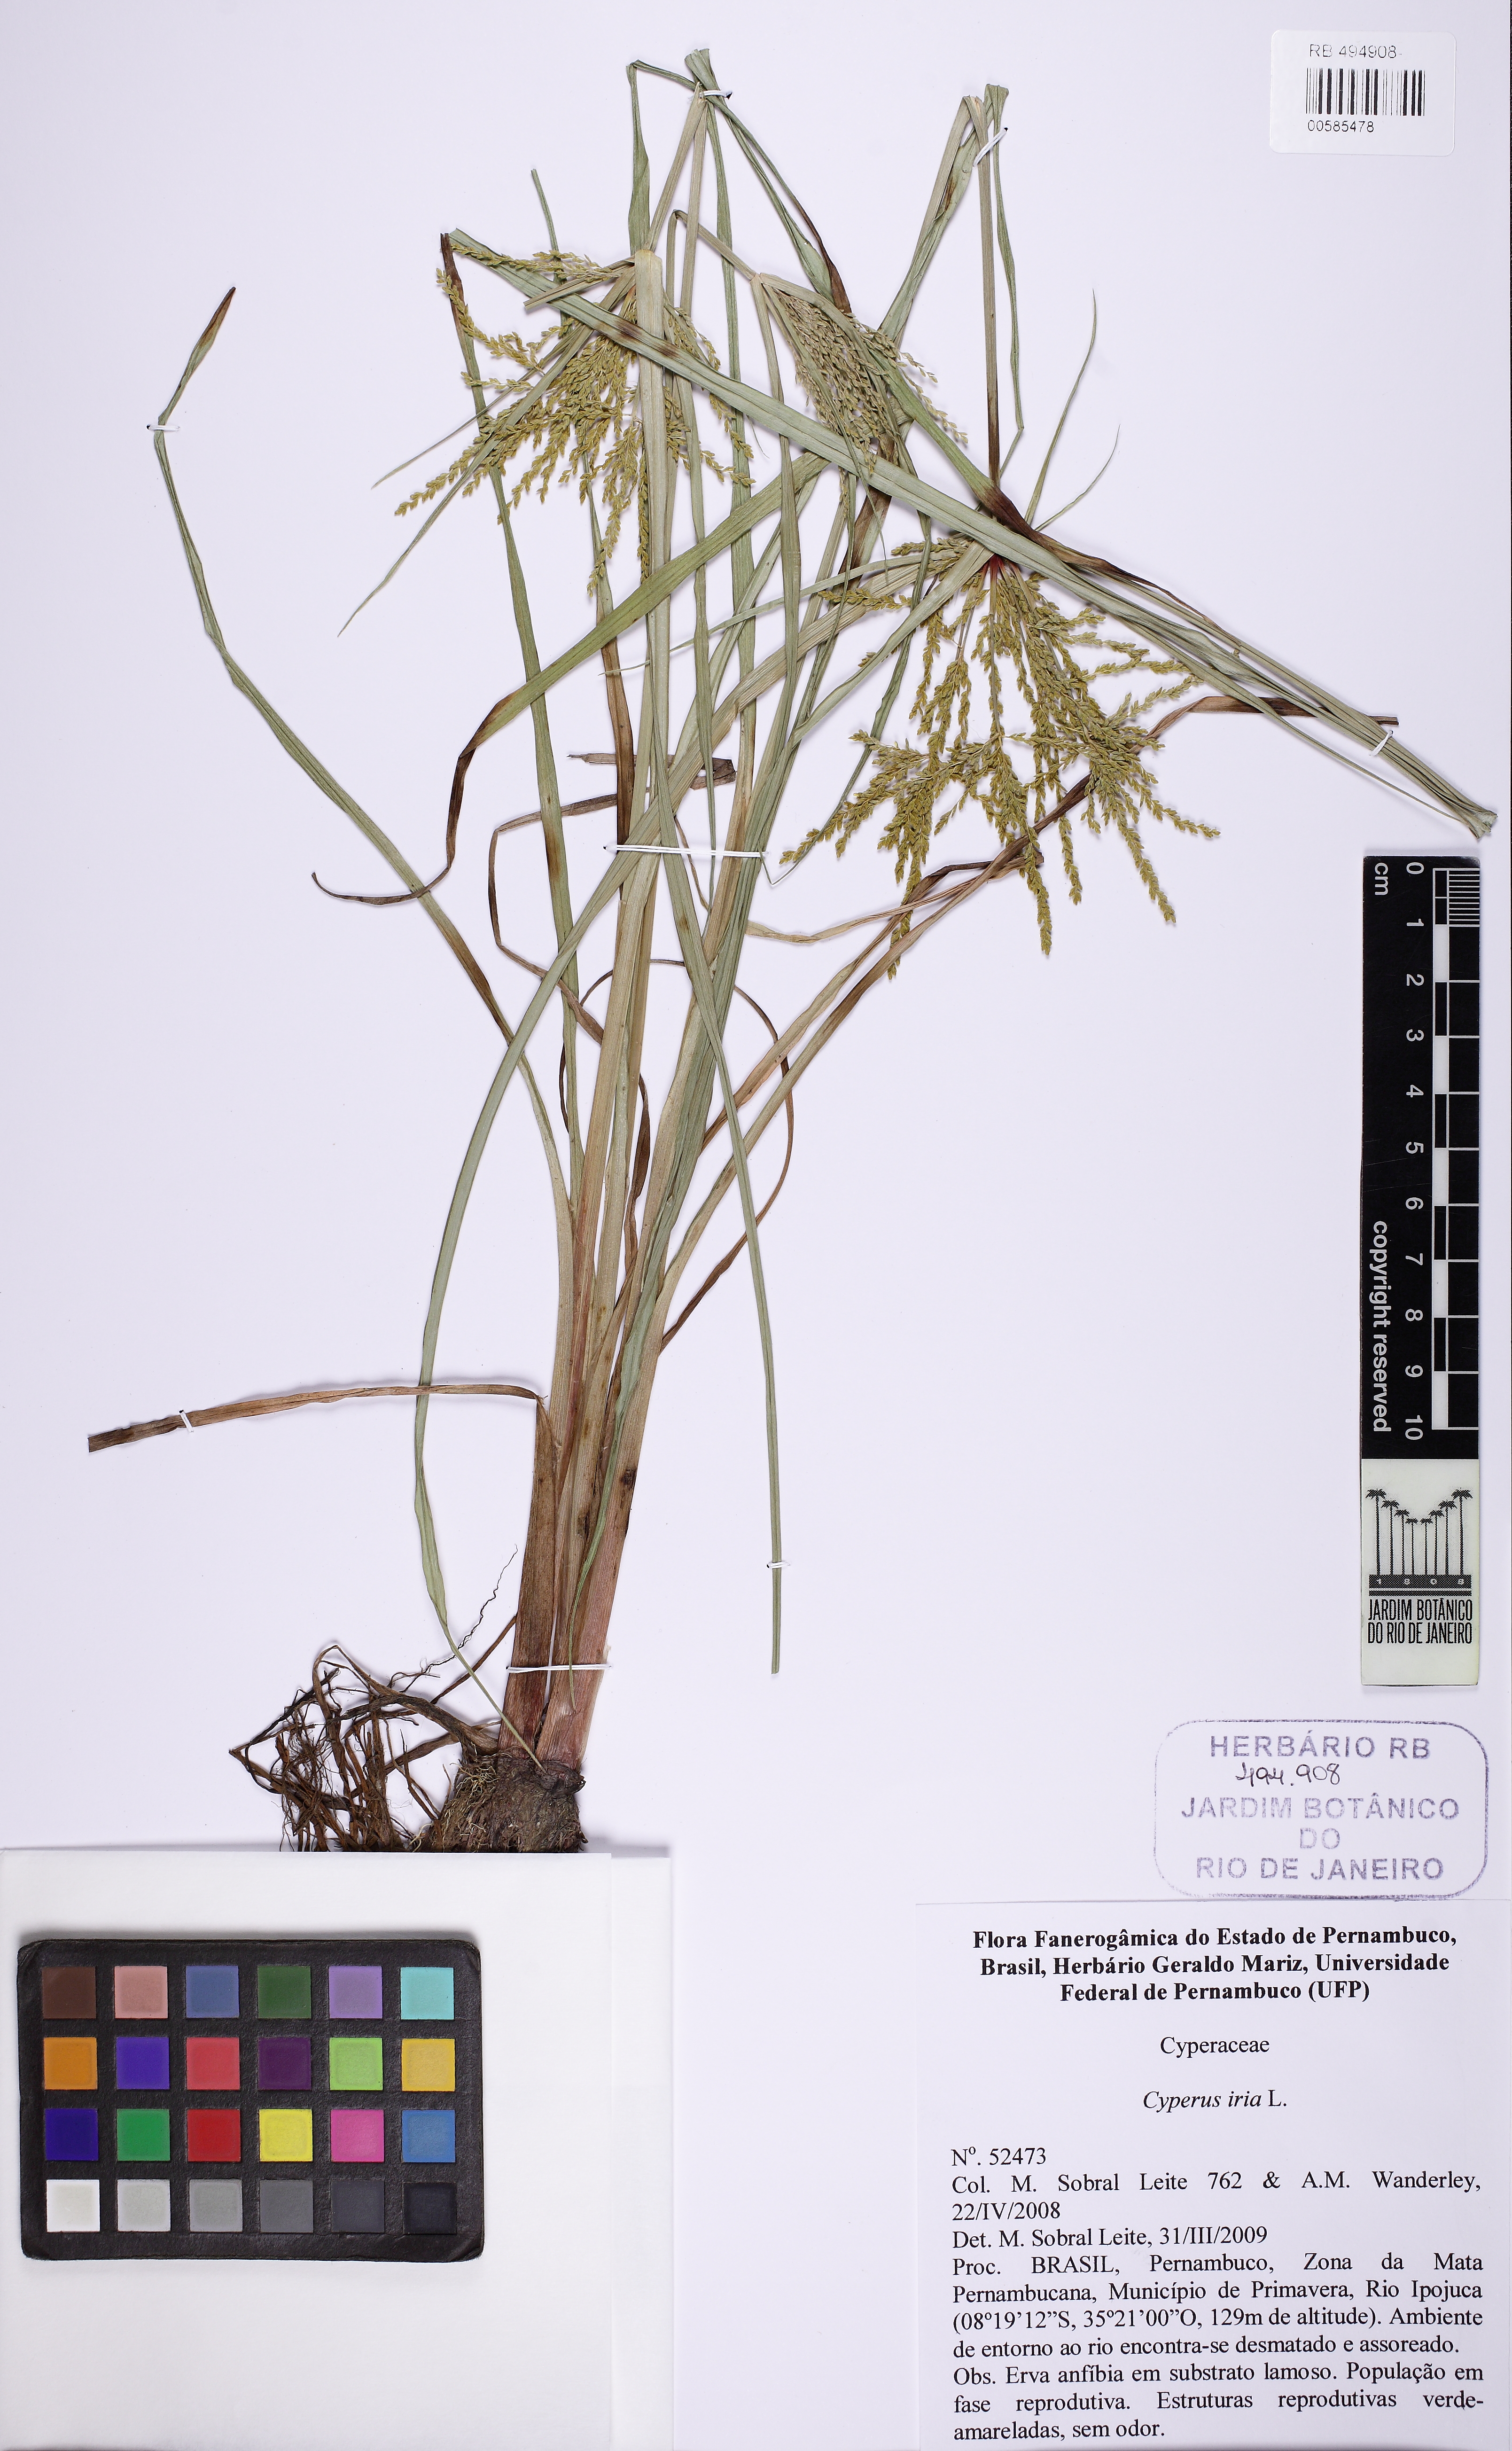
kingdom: Plantae
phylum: Tracheophyta
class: Liliopsida
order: Poales
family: Cyperaceae
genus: Cyperus
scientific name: Cyperus iria
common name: Ricefield flatsedge
